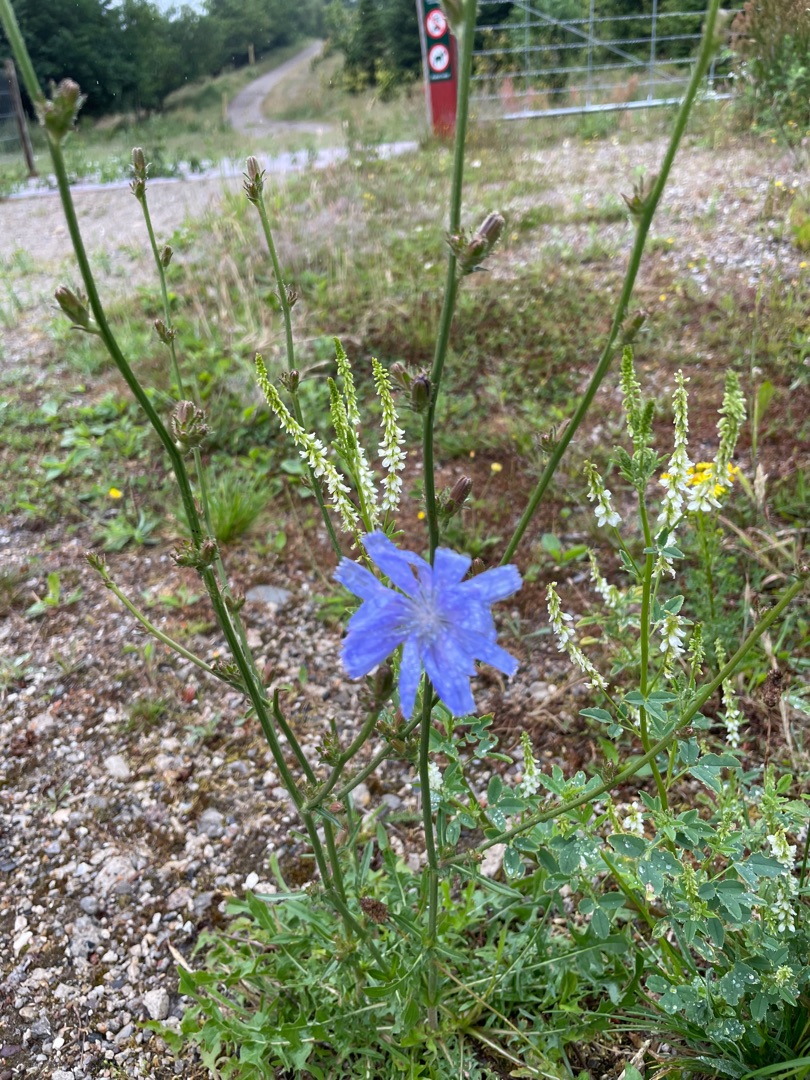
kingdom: Plantae
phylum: Tracheophyta
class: Magnoliopsida
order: Asterales
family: Asteraceae
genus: Cichorium
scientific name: Cichorium intybus
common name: Cikorie
